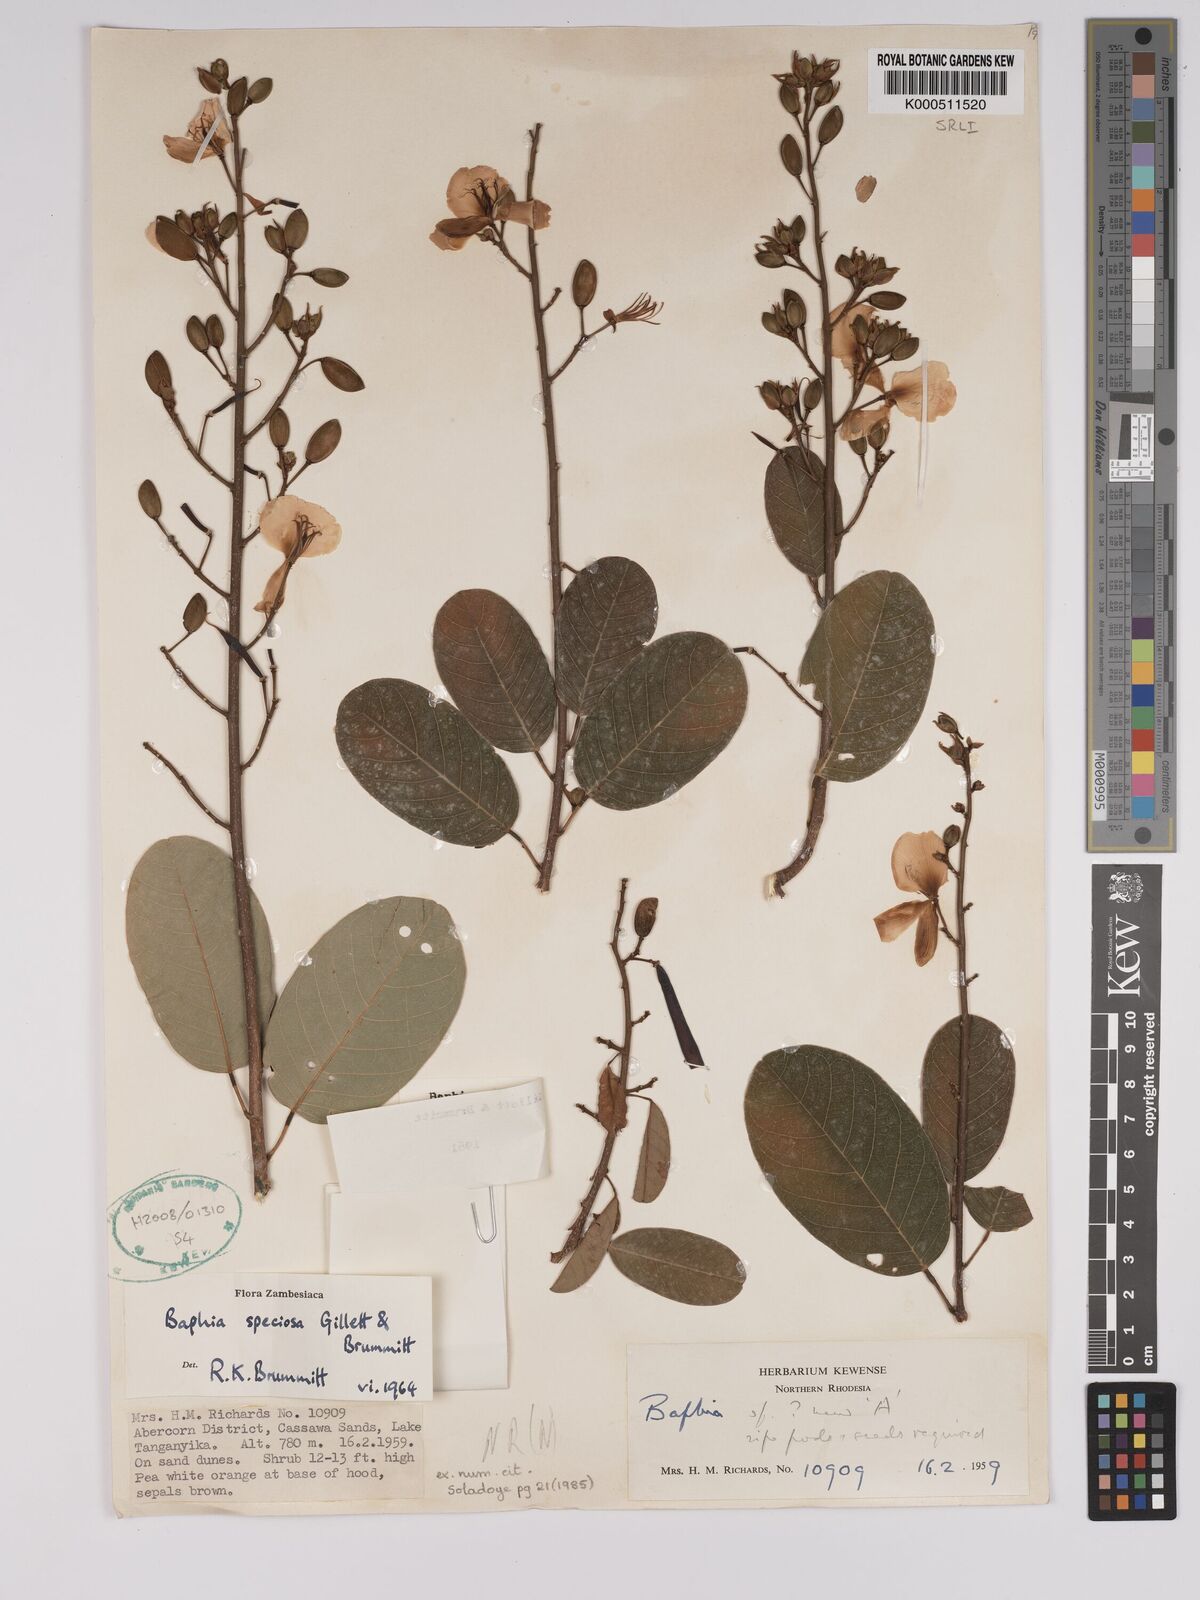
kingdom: Plantae
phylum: Tracheophyta
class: Magnoliopsida
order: Fabales
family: Fabaceae
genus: Baphia
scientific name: Baphia speciosa
